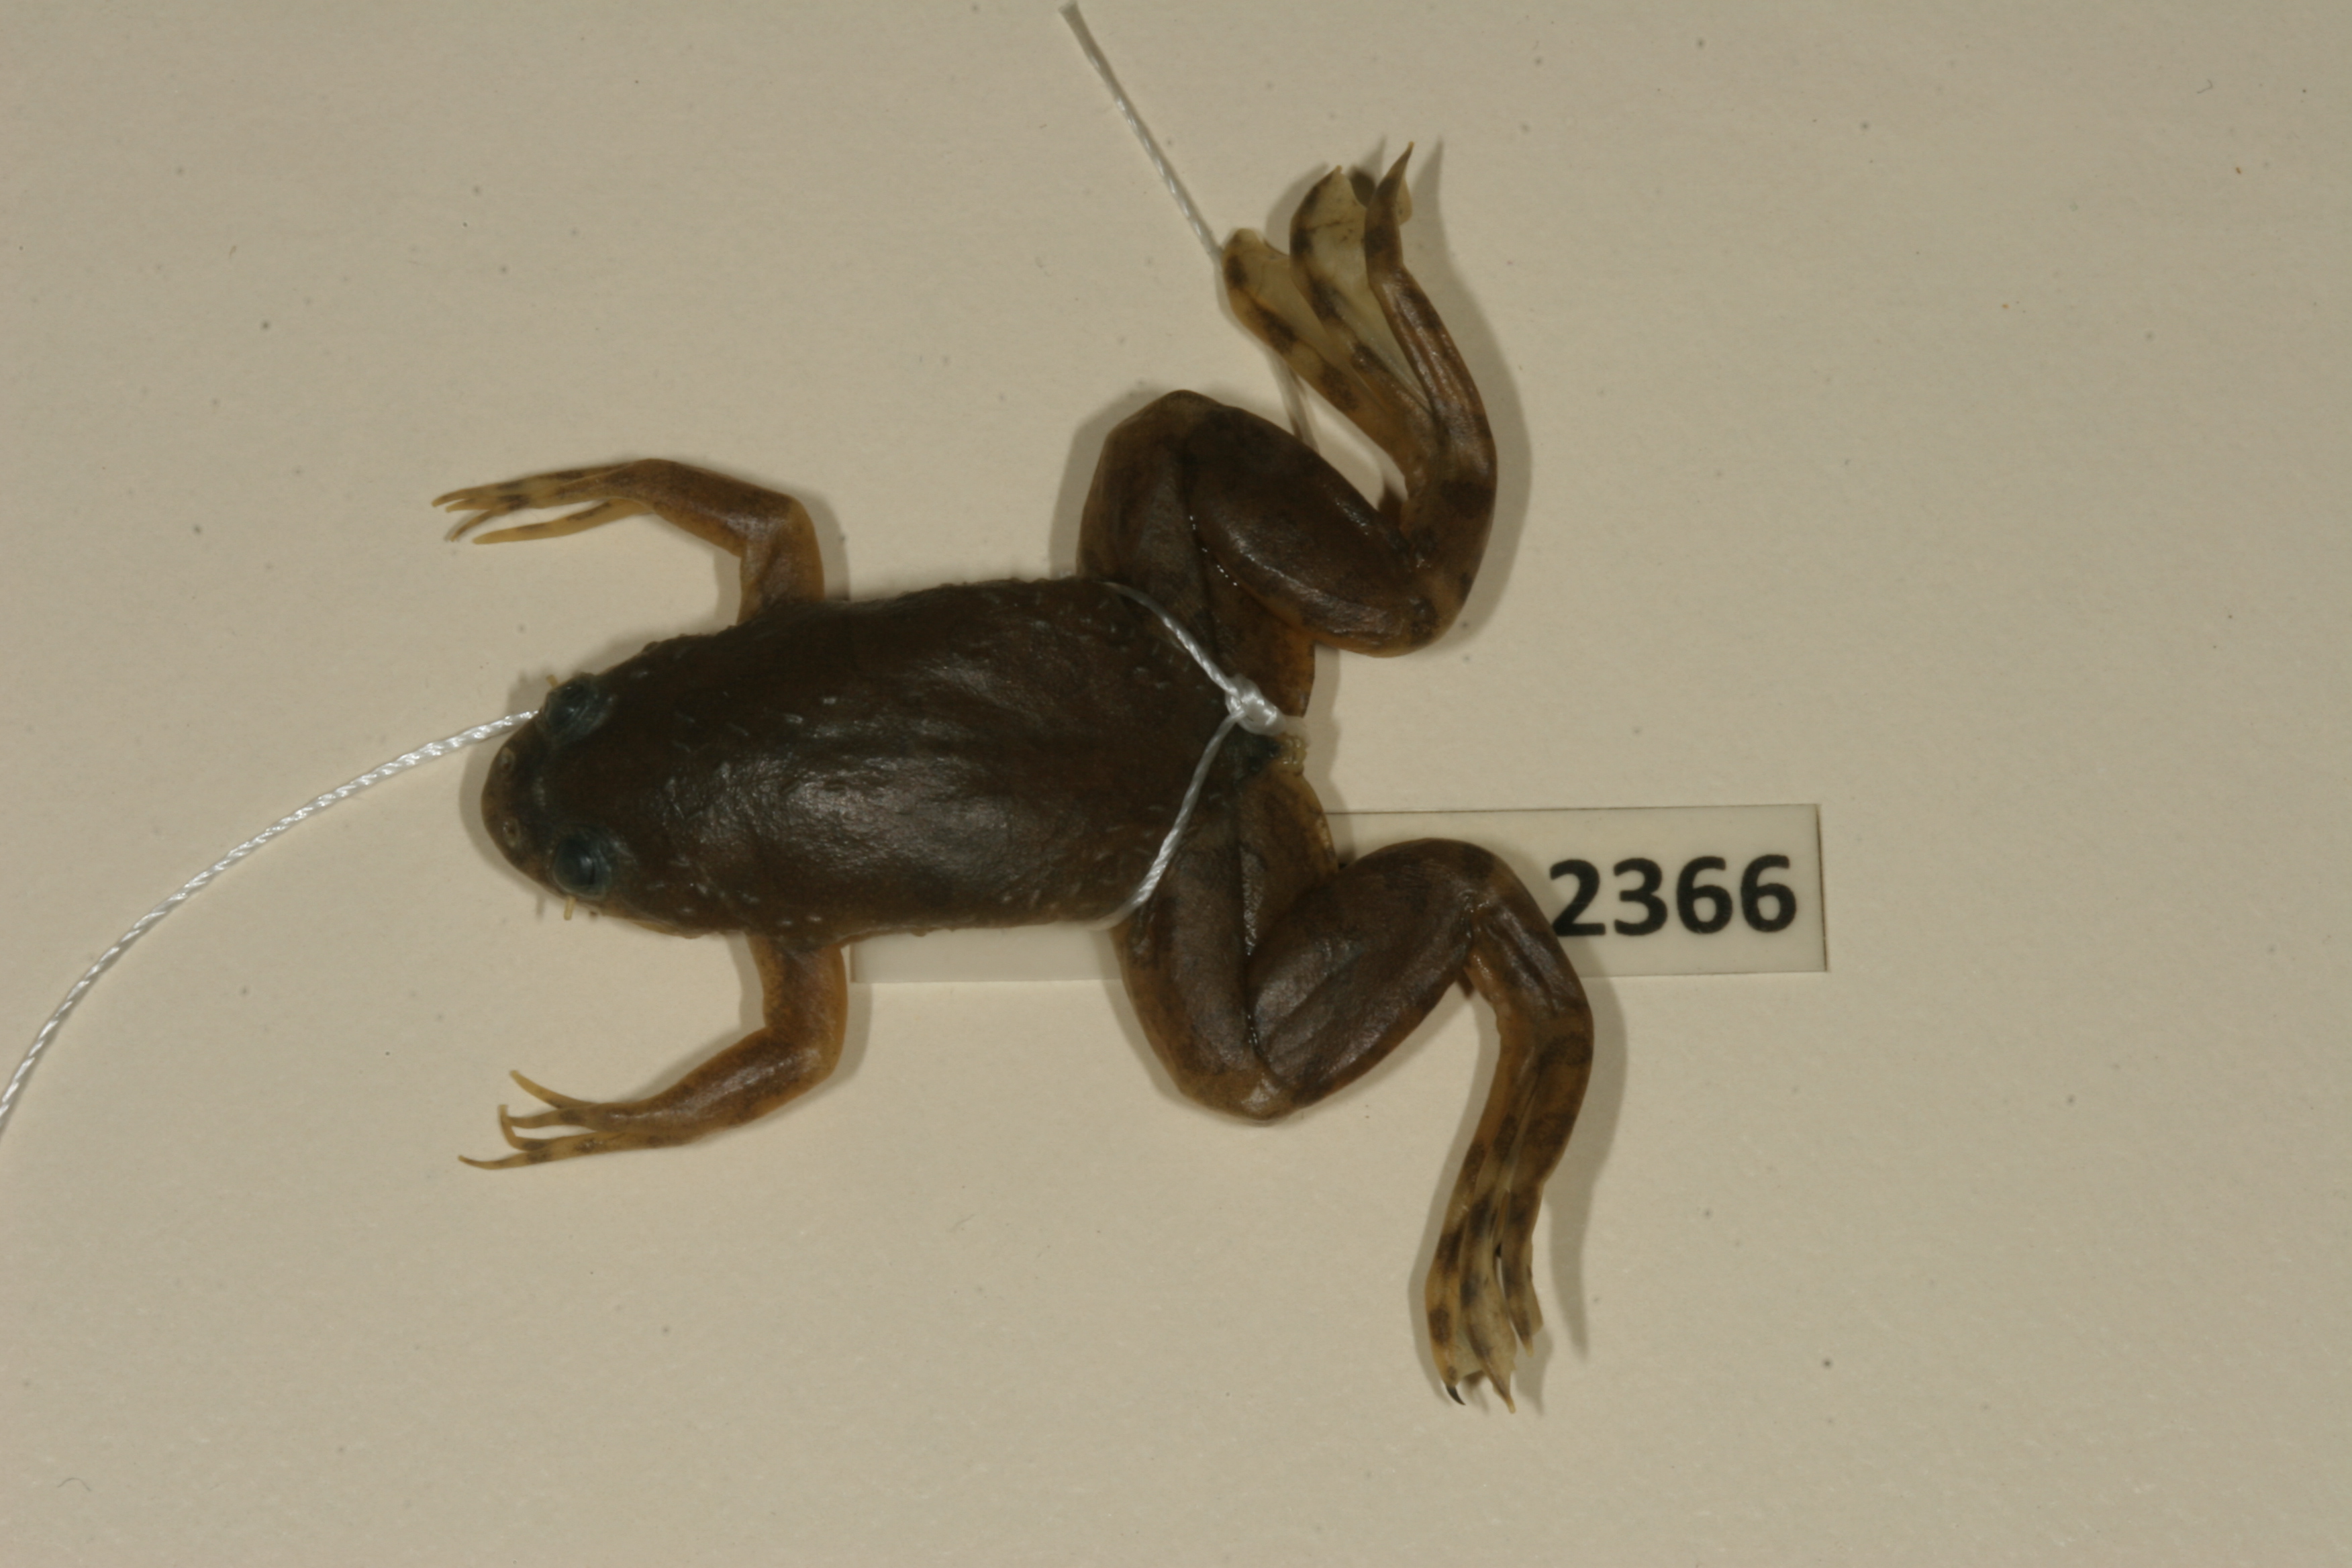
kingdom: Animalia
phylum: Chordata
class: Amphibia
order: Anura
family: Pipidae
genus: Xenopus
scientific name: Xenopus muelleri
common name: Muller's clawed frog
